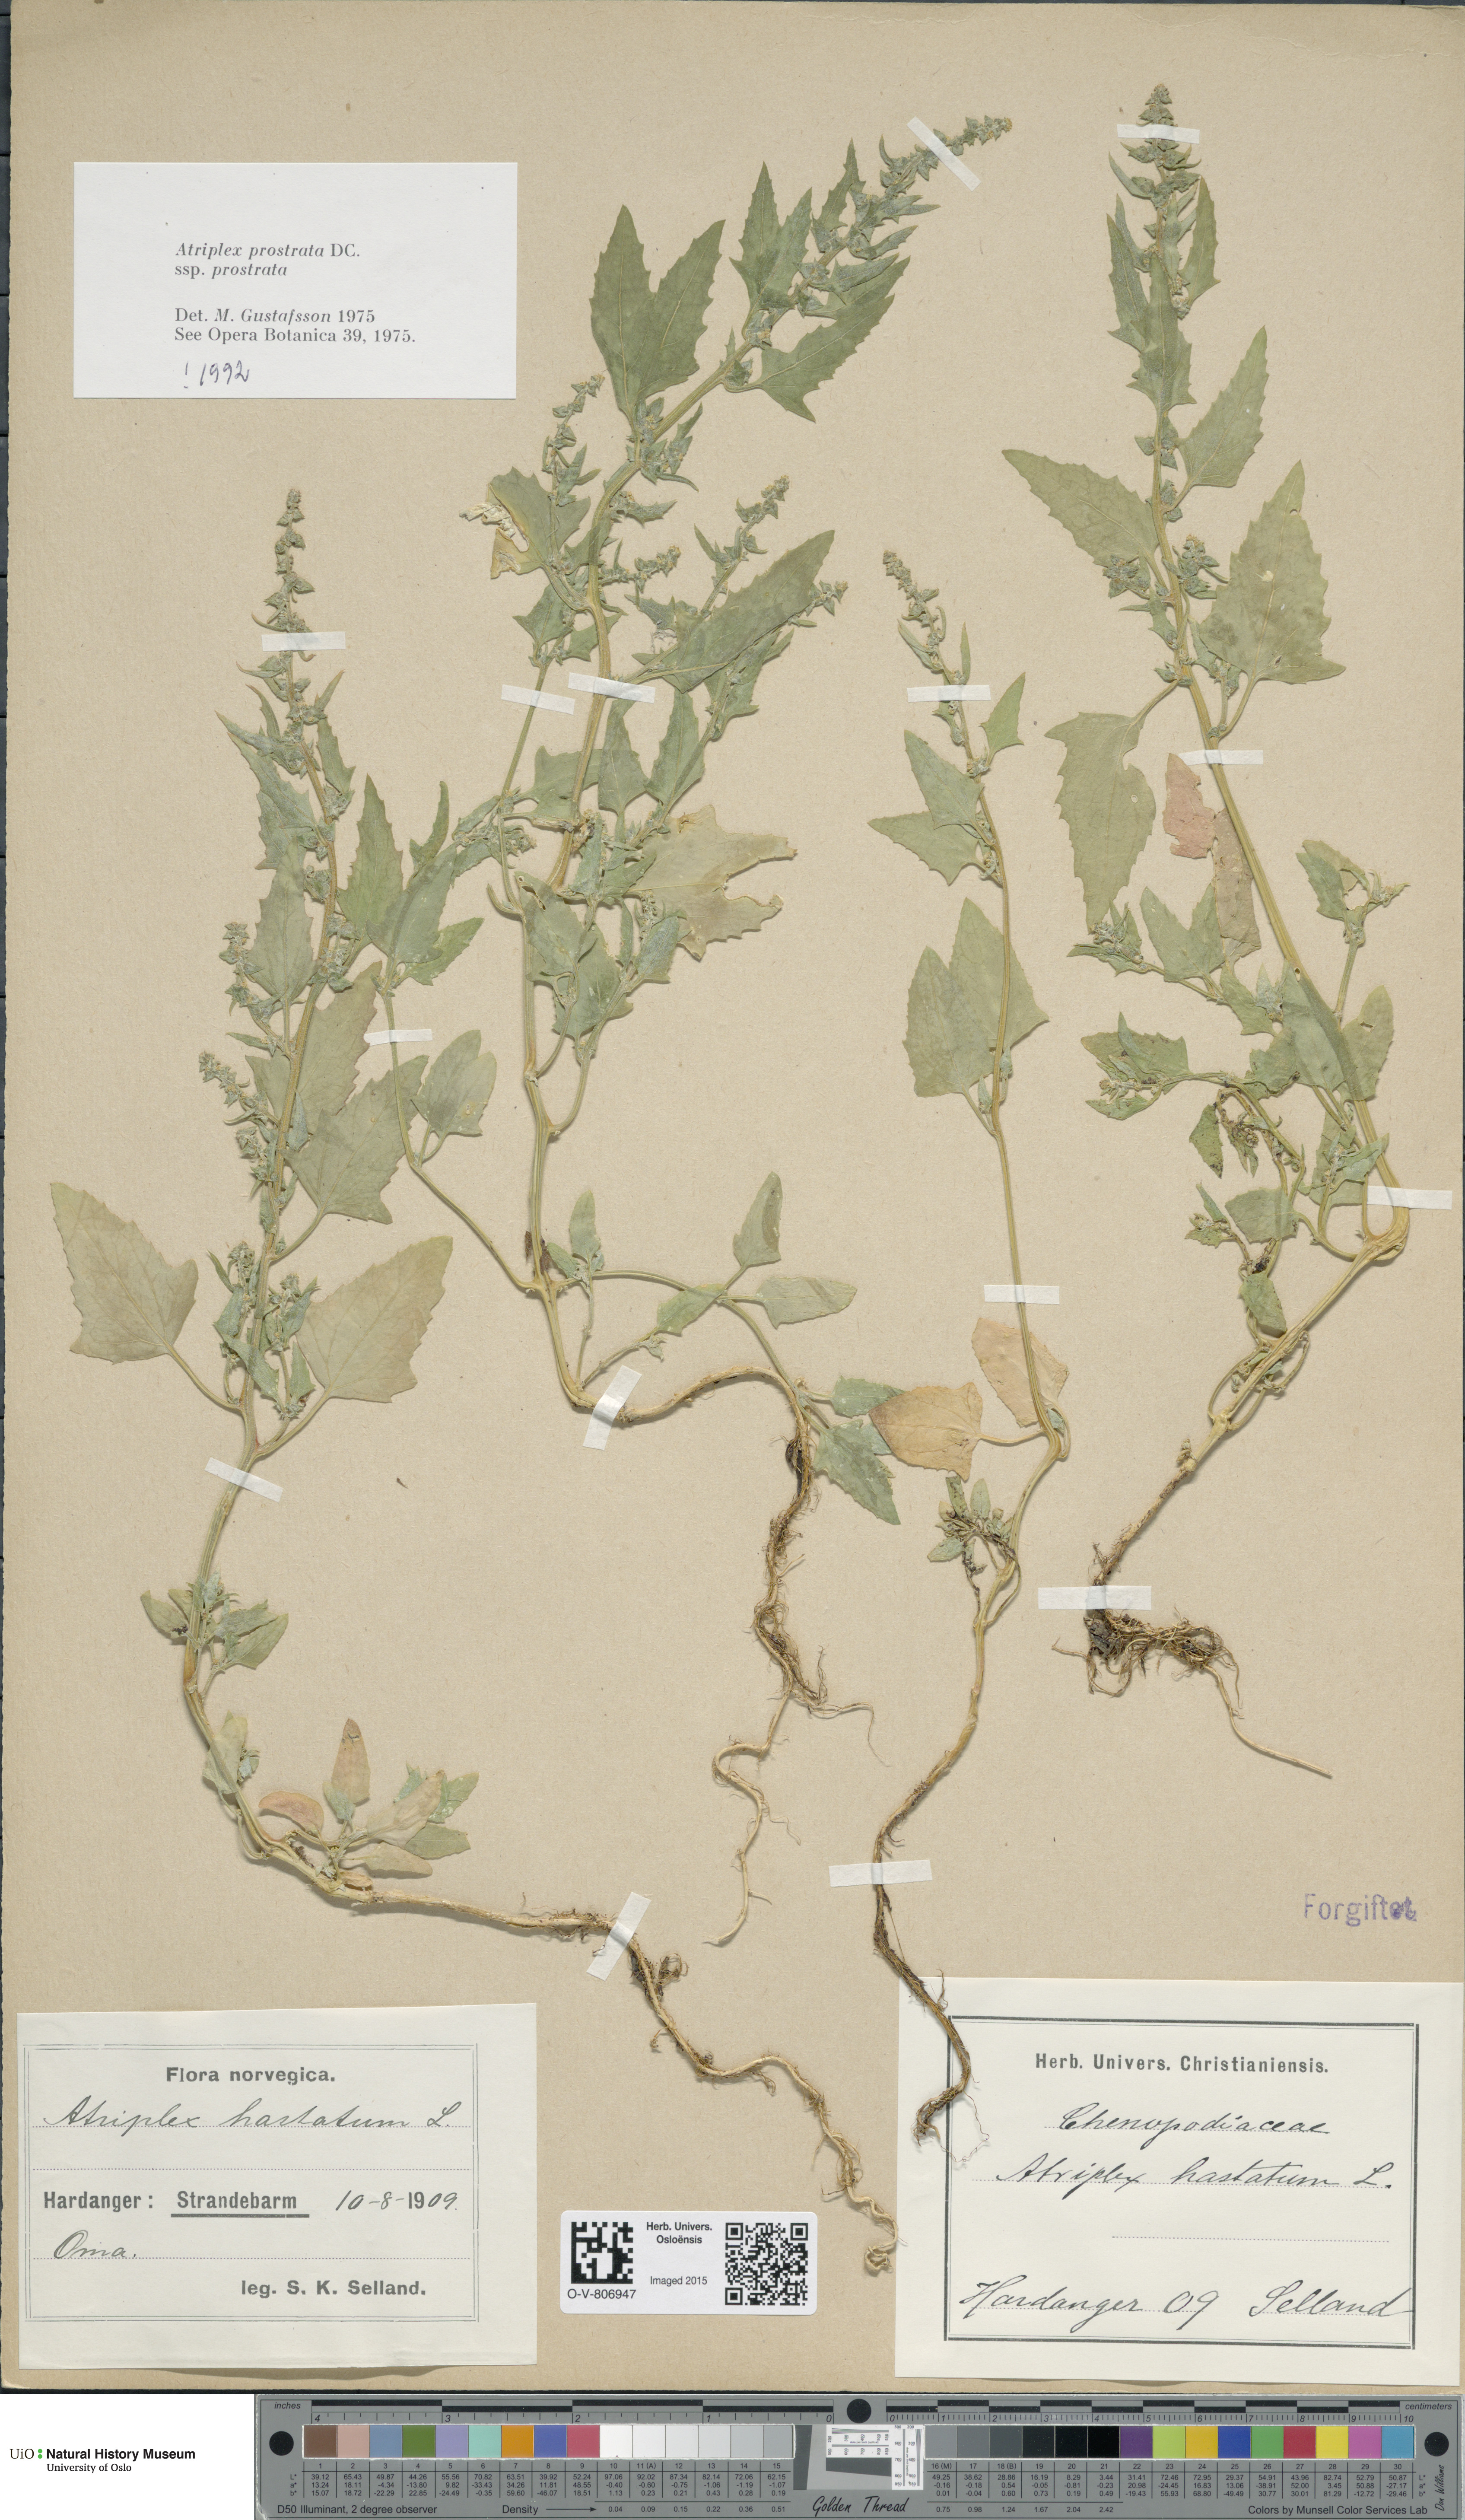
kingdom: Plantae
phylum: Tracheophyta
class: Magnoliopsida
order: Caryophyllales
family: Amaranthaceae
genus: Atriplex
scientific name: Atriplex prostrata
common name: Spear-leaved orache
